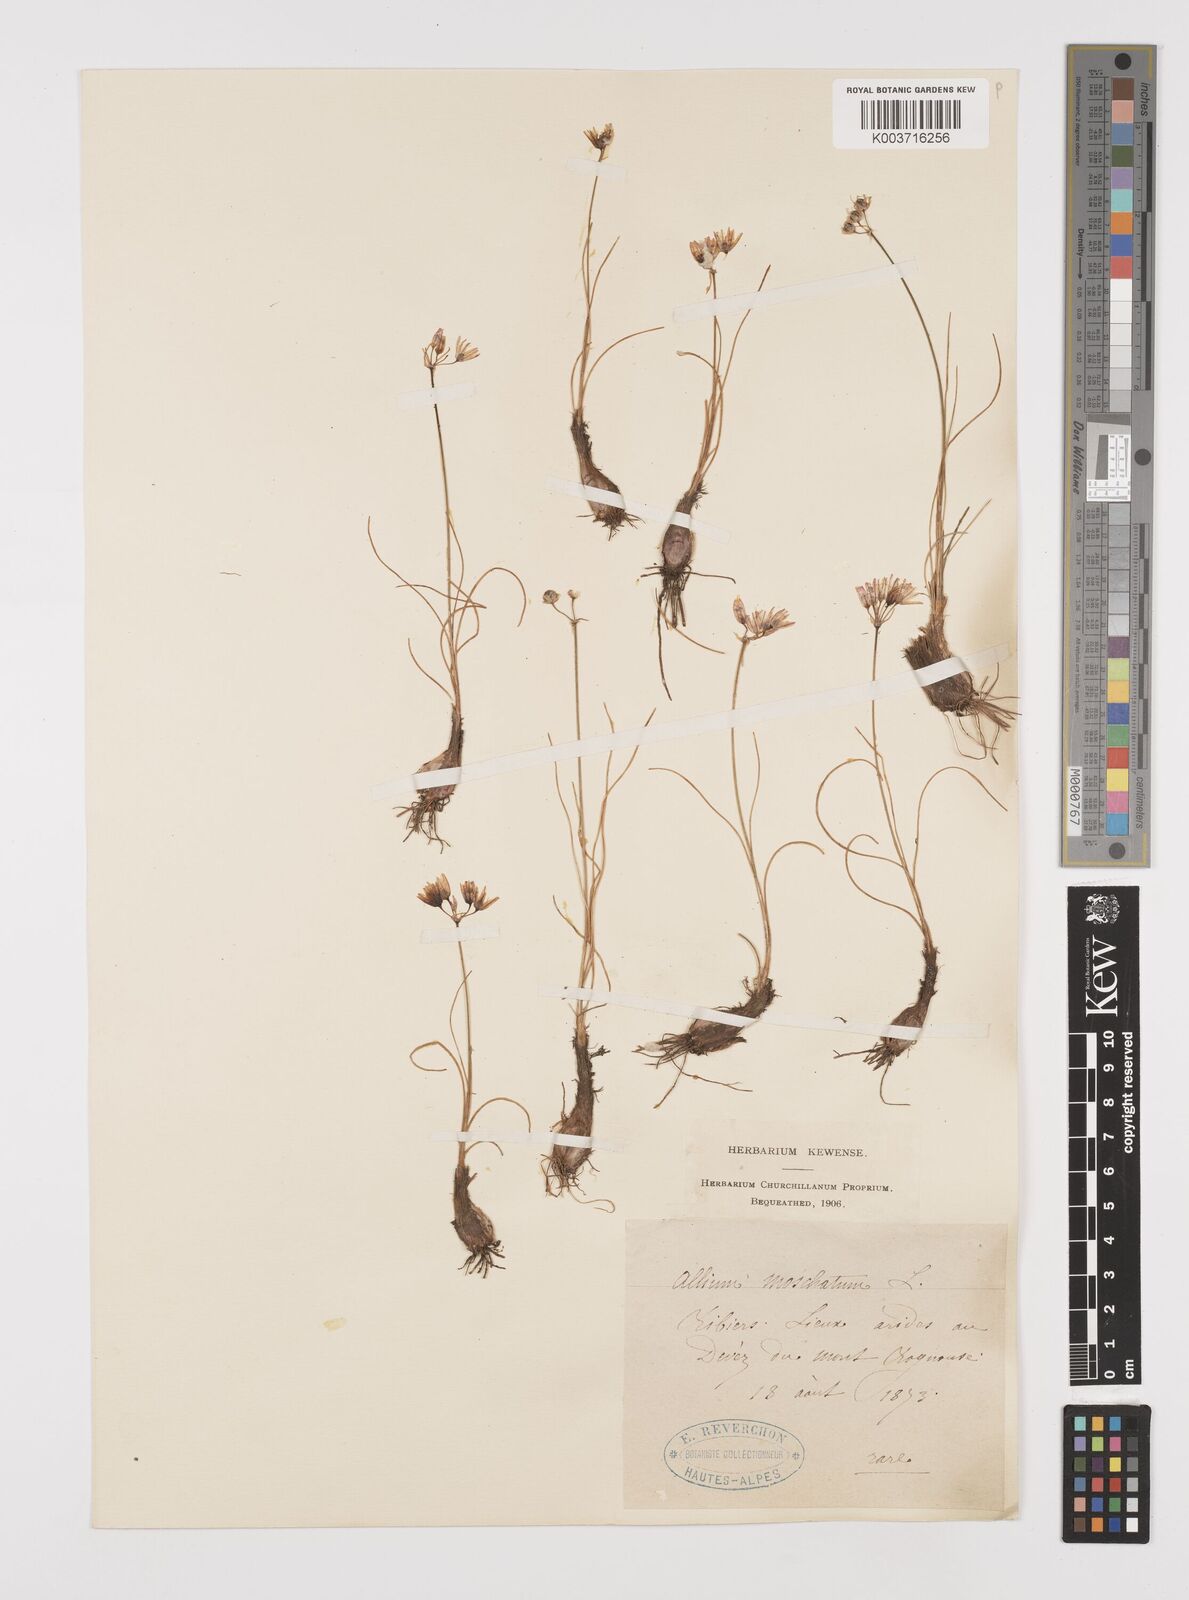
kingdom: Plantae
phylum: Tracheophyta
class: Liliopsida
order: Asparagales
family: Amaryllidaceae
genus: Allium
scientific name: Allium moschatum
